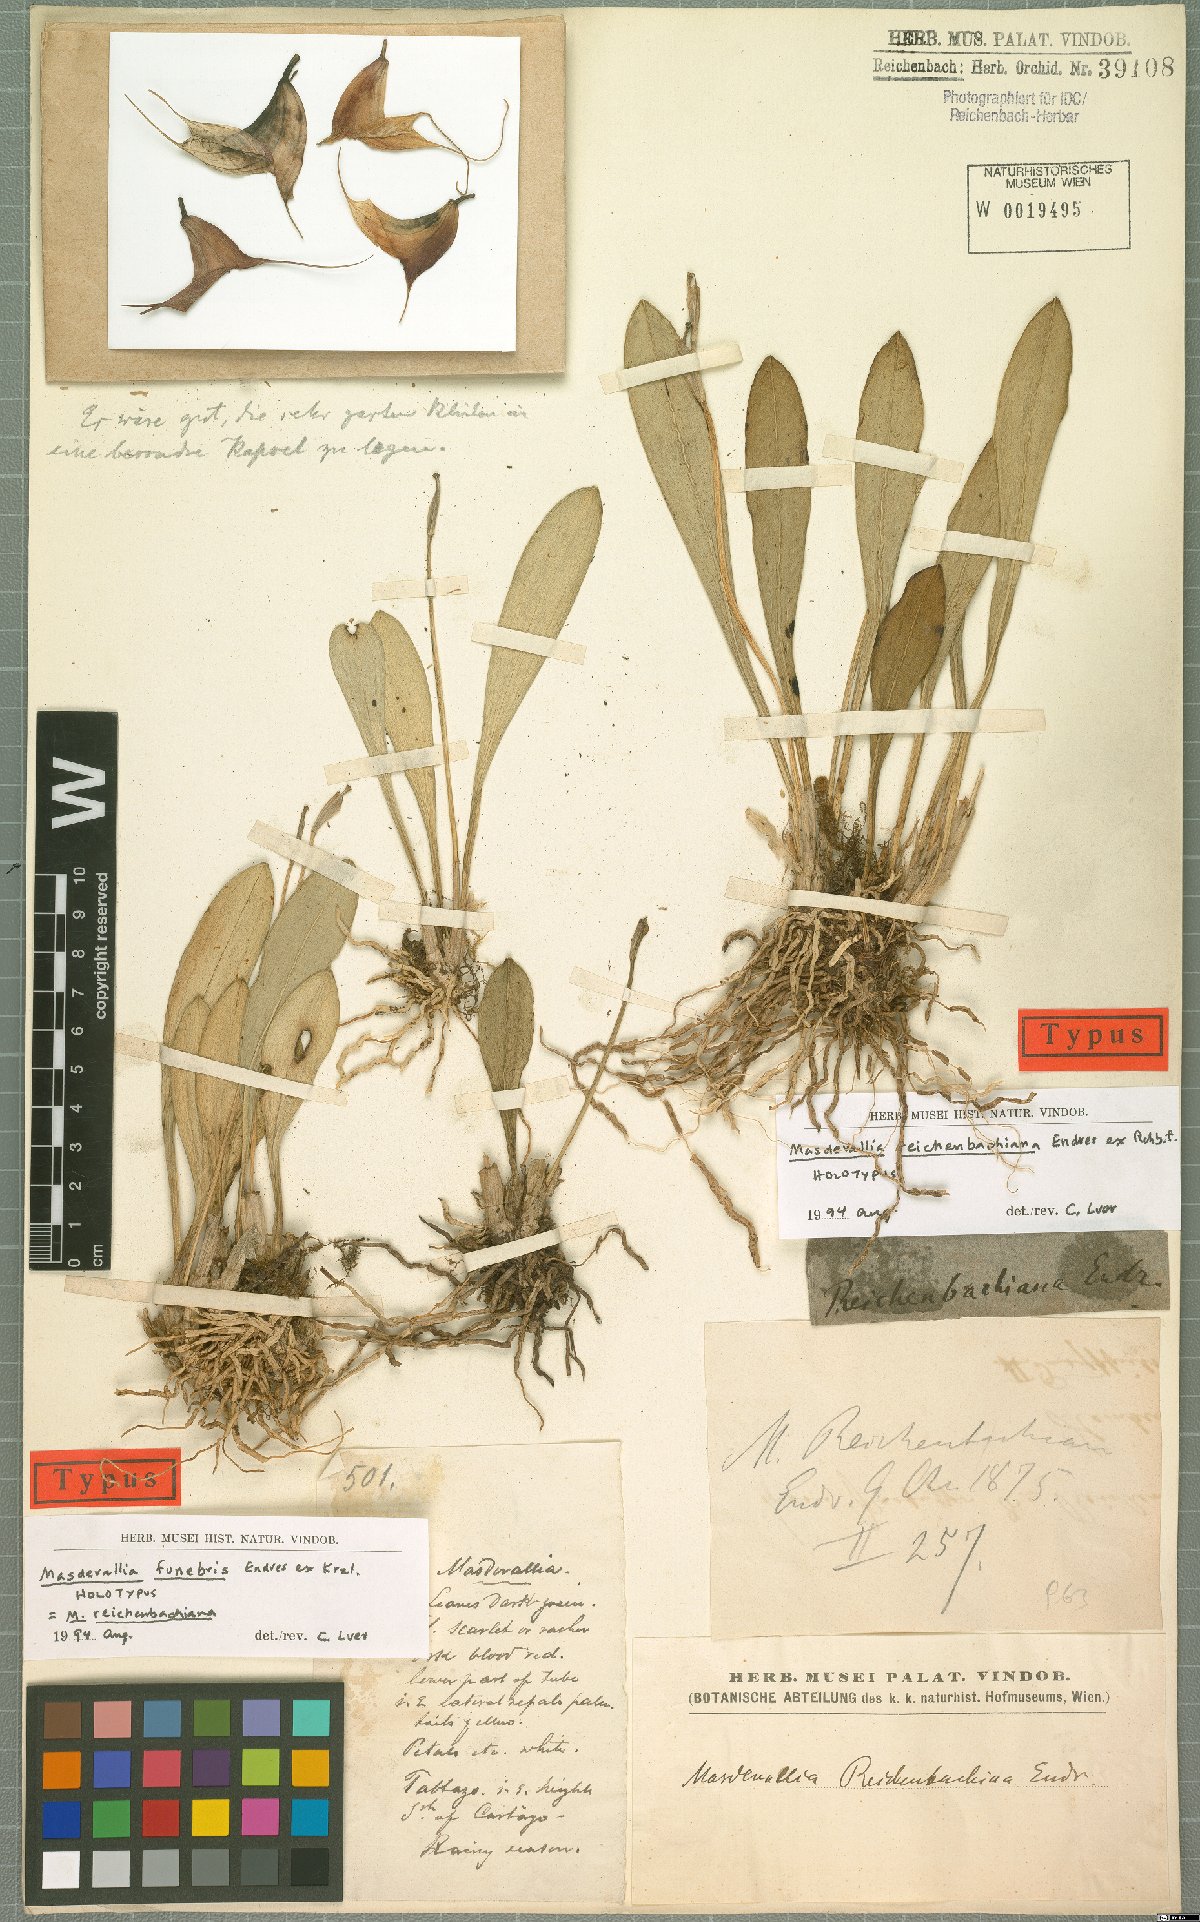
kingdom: Plantae
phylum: Tracheophyta
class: Liliopsida
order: Asparagales
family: Orchidaceae
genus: Masdevallia
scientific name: Masdevallia reichenbachiana
